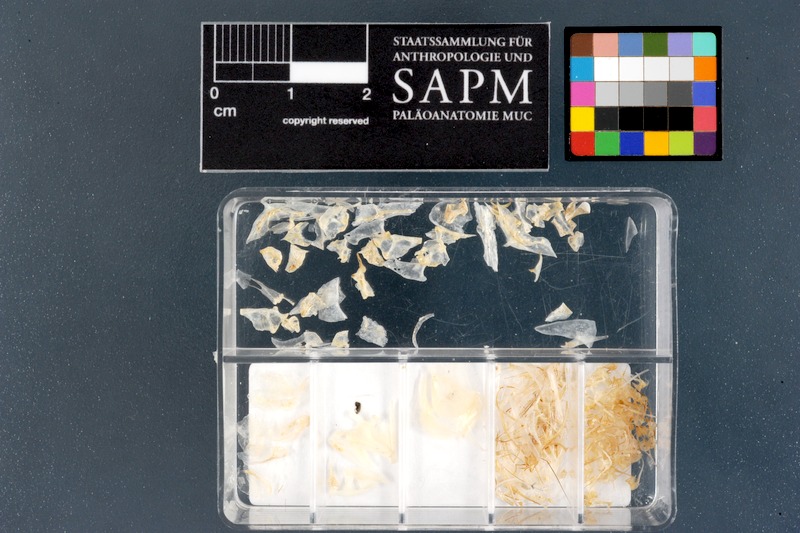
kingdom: Animalia
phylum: Chordata
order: Cypriniformes
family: Cyprinidae
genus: Engraulicypris
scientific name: Engraulicypris sardella
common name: Lake malawi sardine
